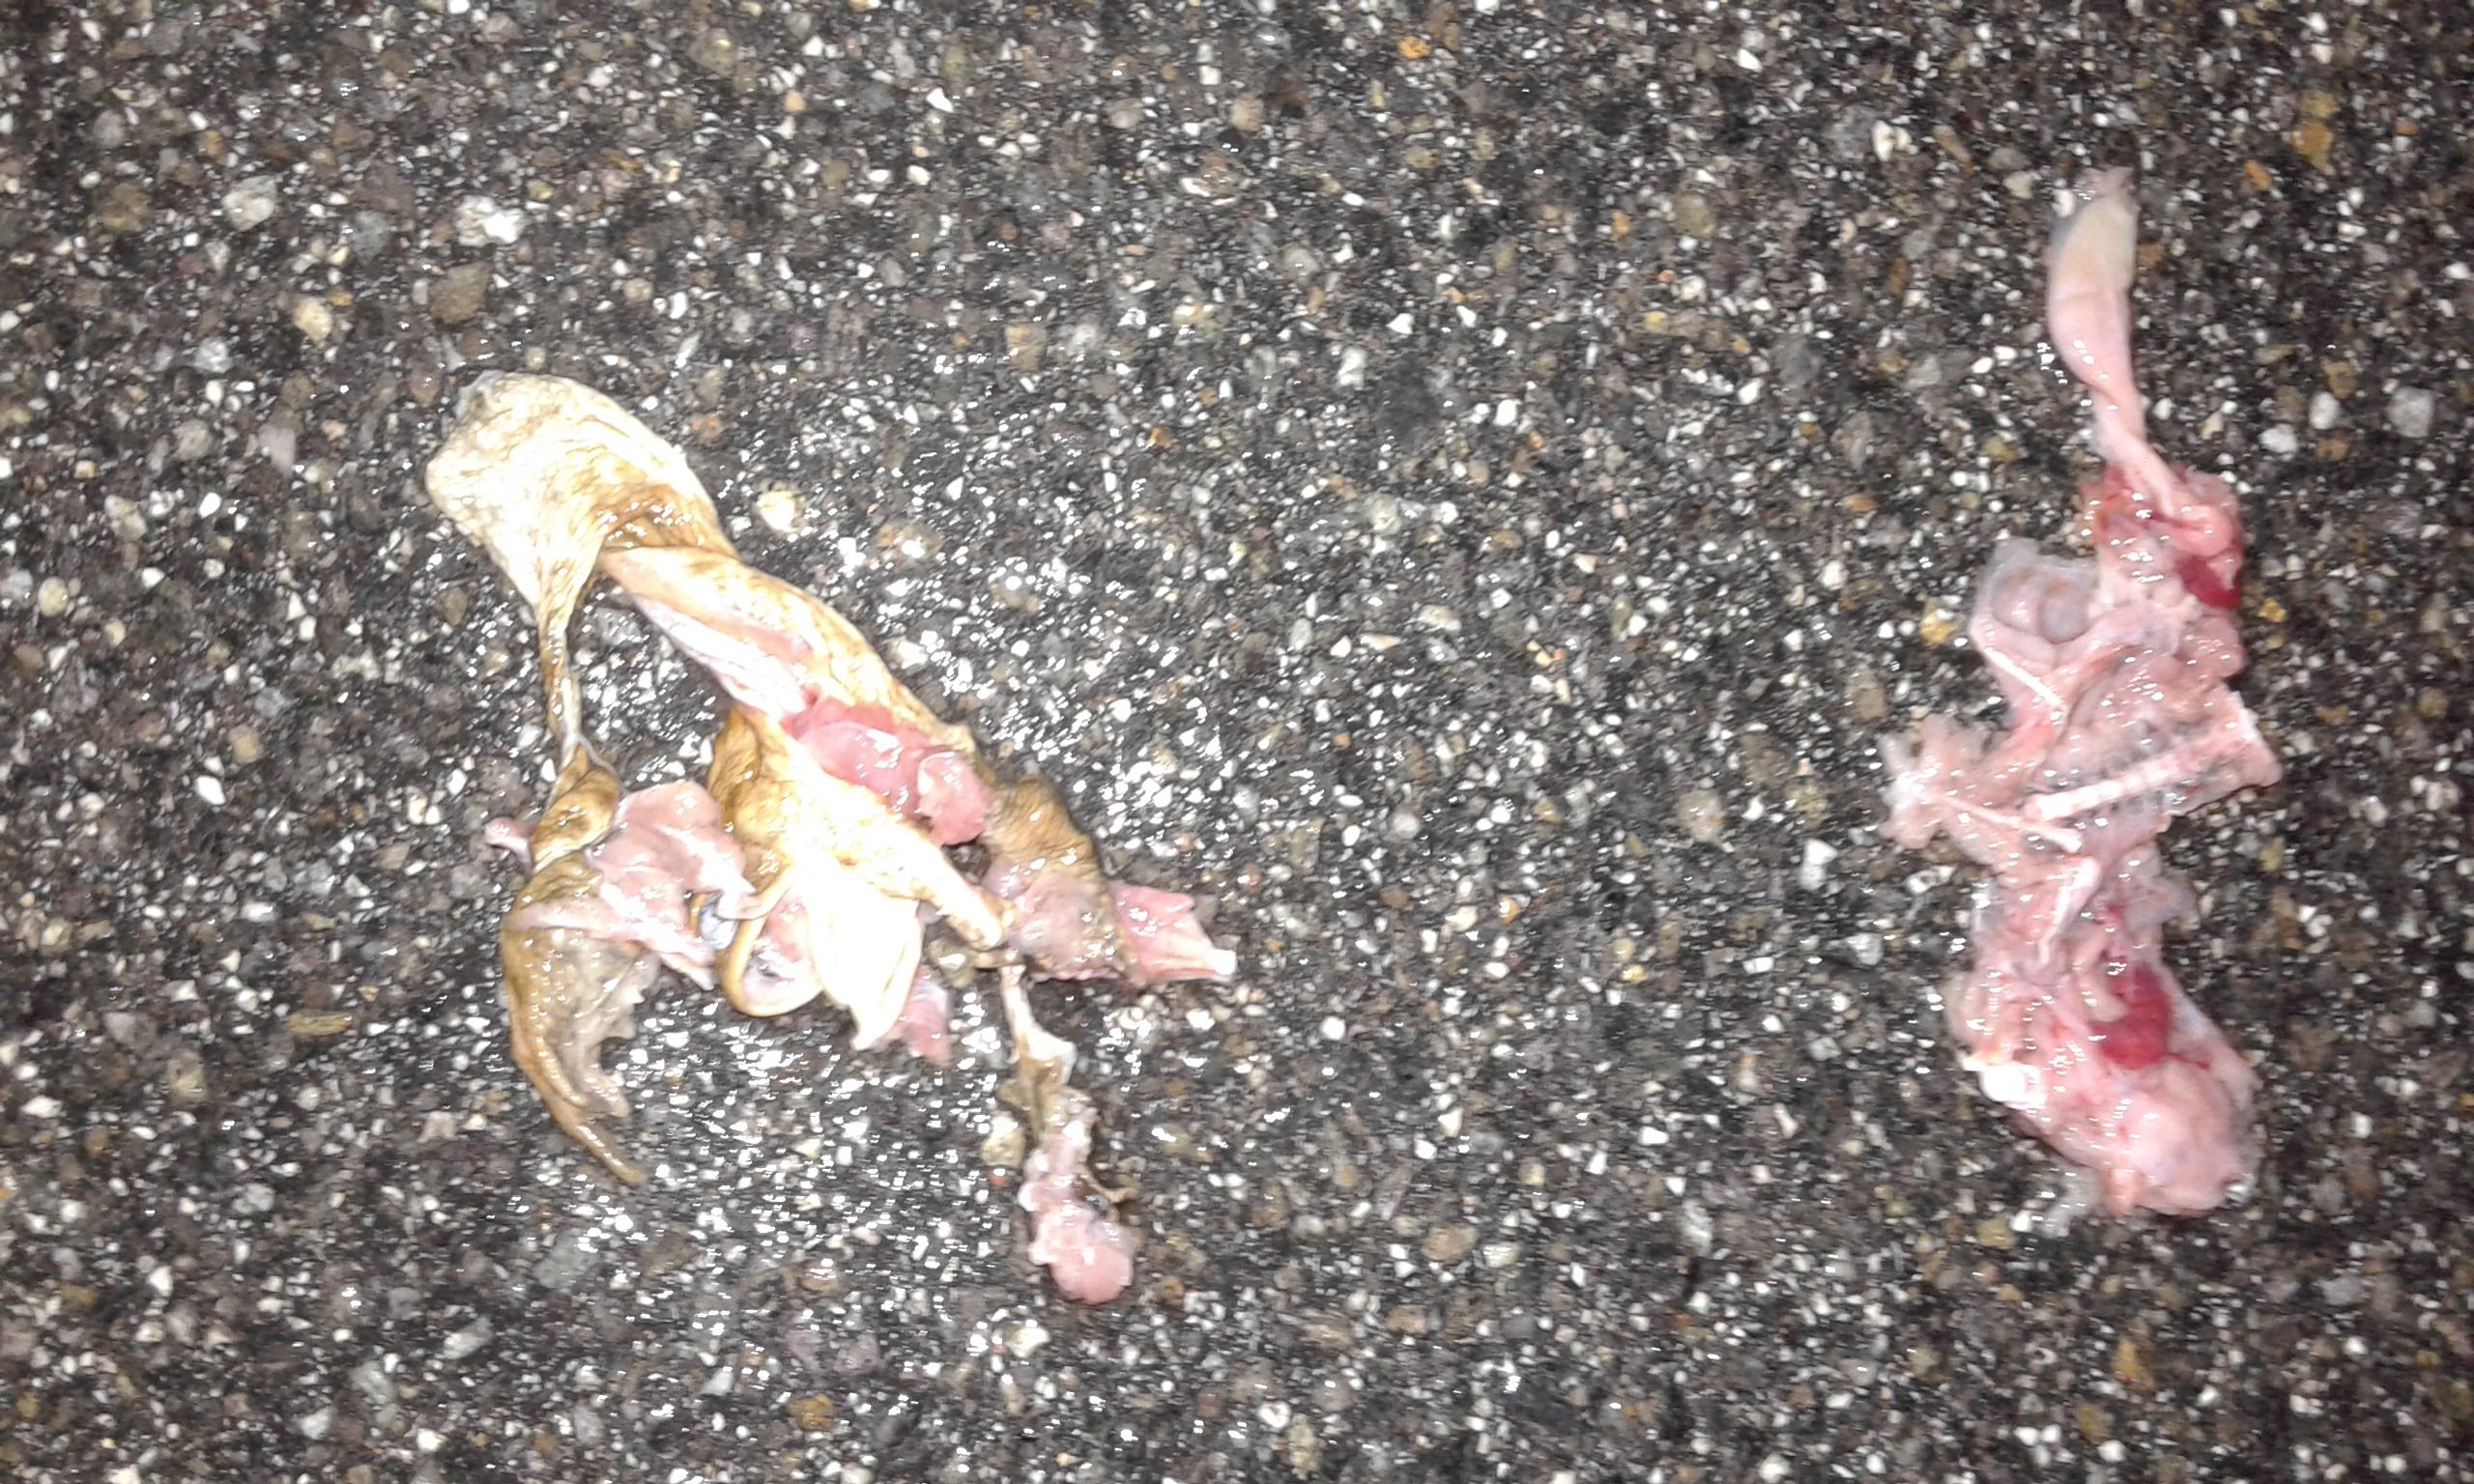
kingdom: Animalia
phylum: Chordata
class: Amphibia
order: Anura
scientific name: Anura
